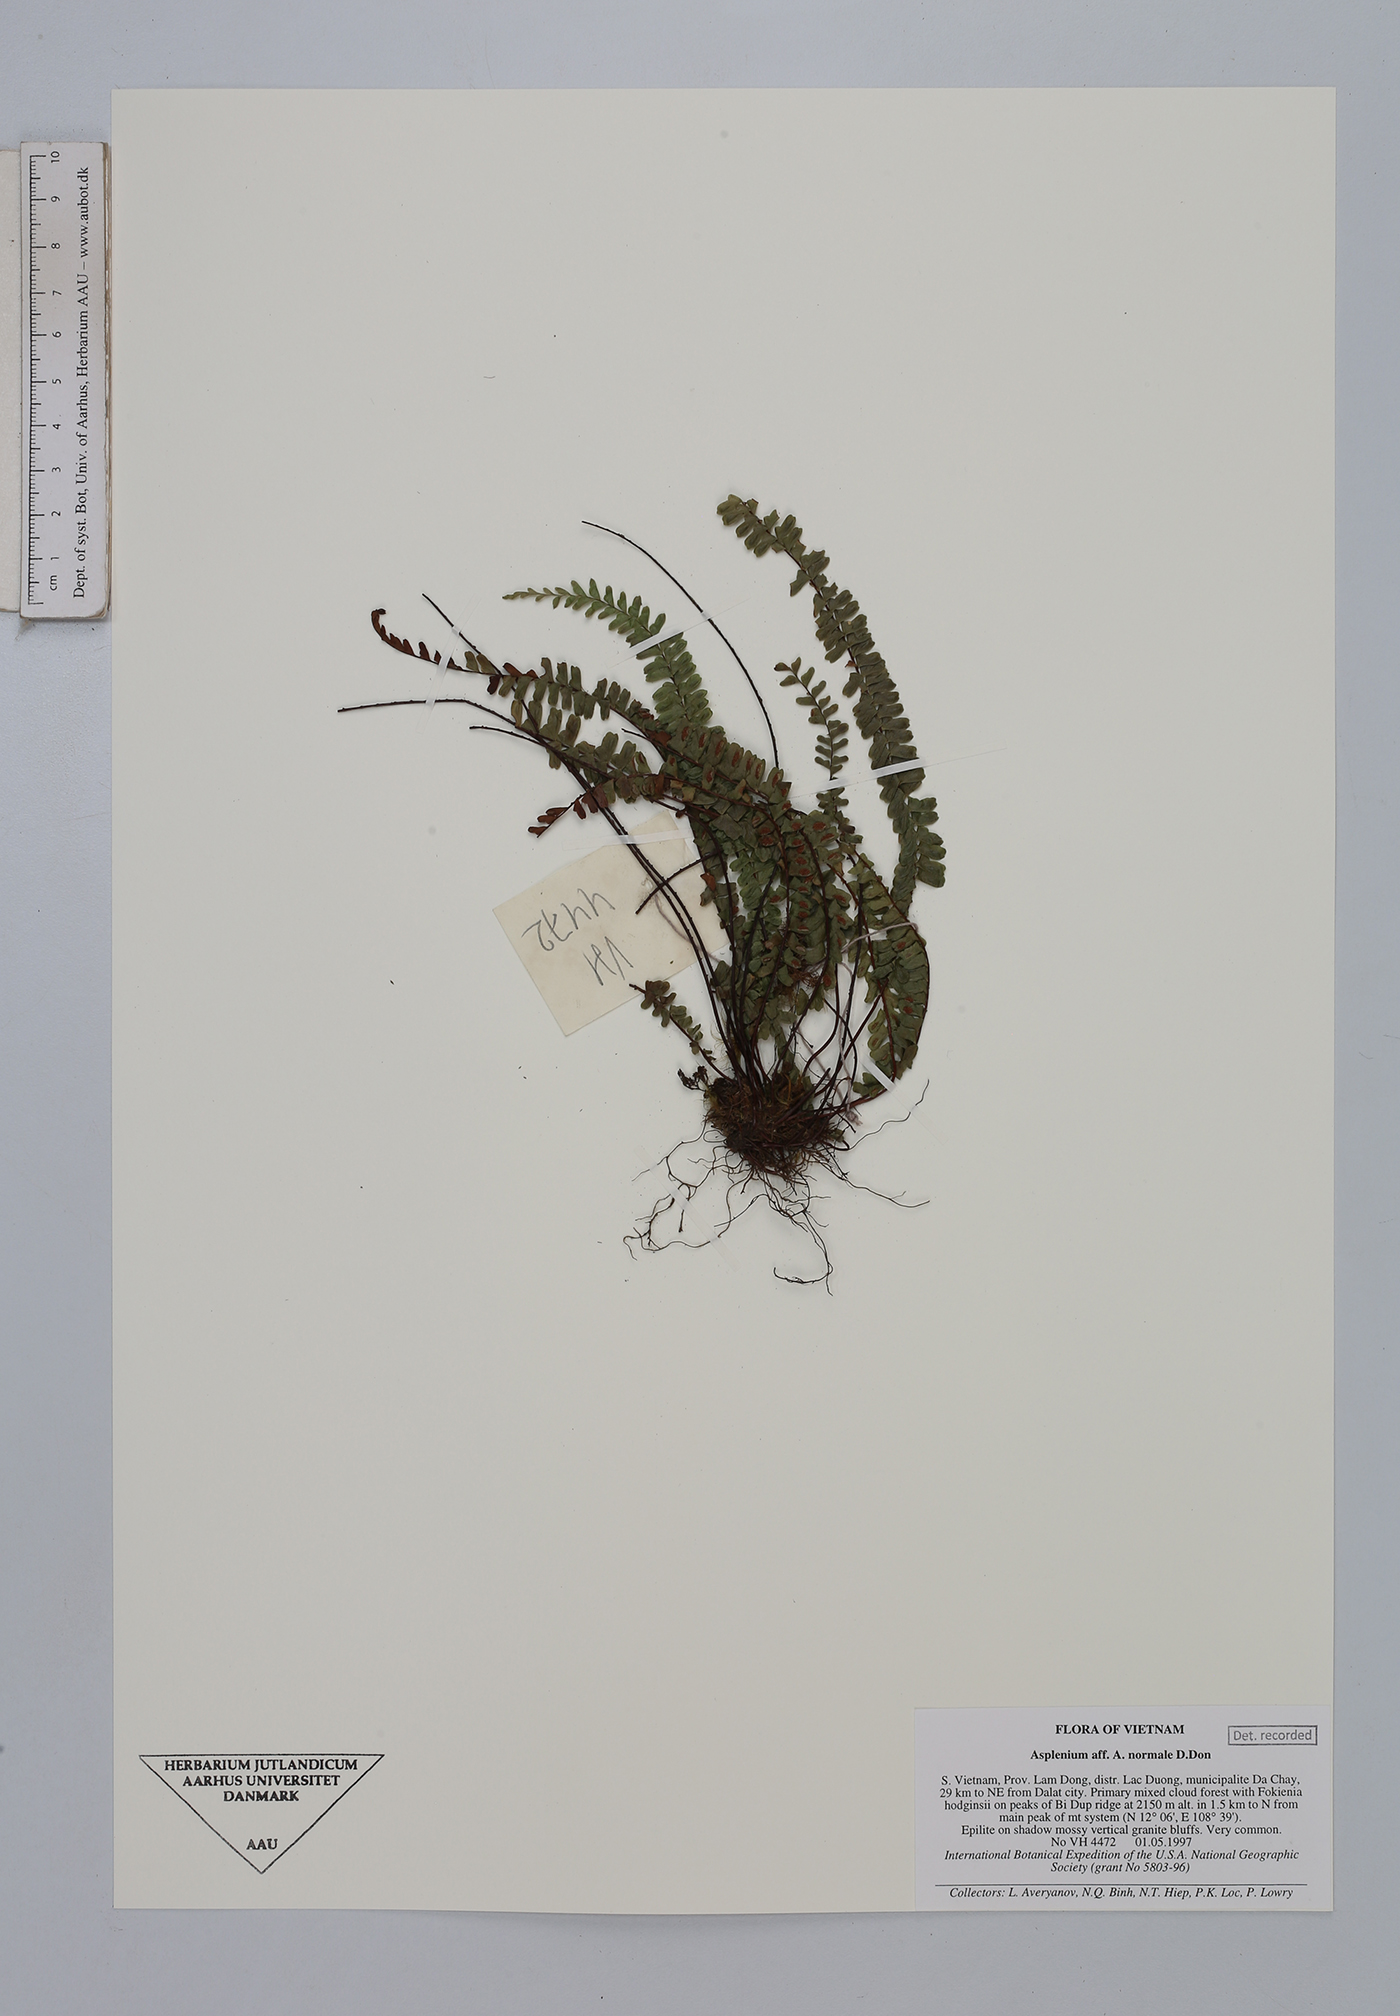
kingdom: Plantae
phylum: Tracheophyta
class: Polypodiopsida
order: Polypodiales
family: Aspleniaceae
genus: Asplenium
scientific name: Asplenium normale
